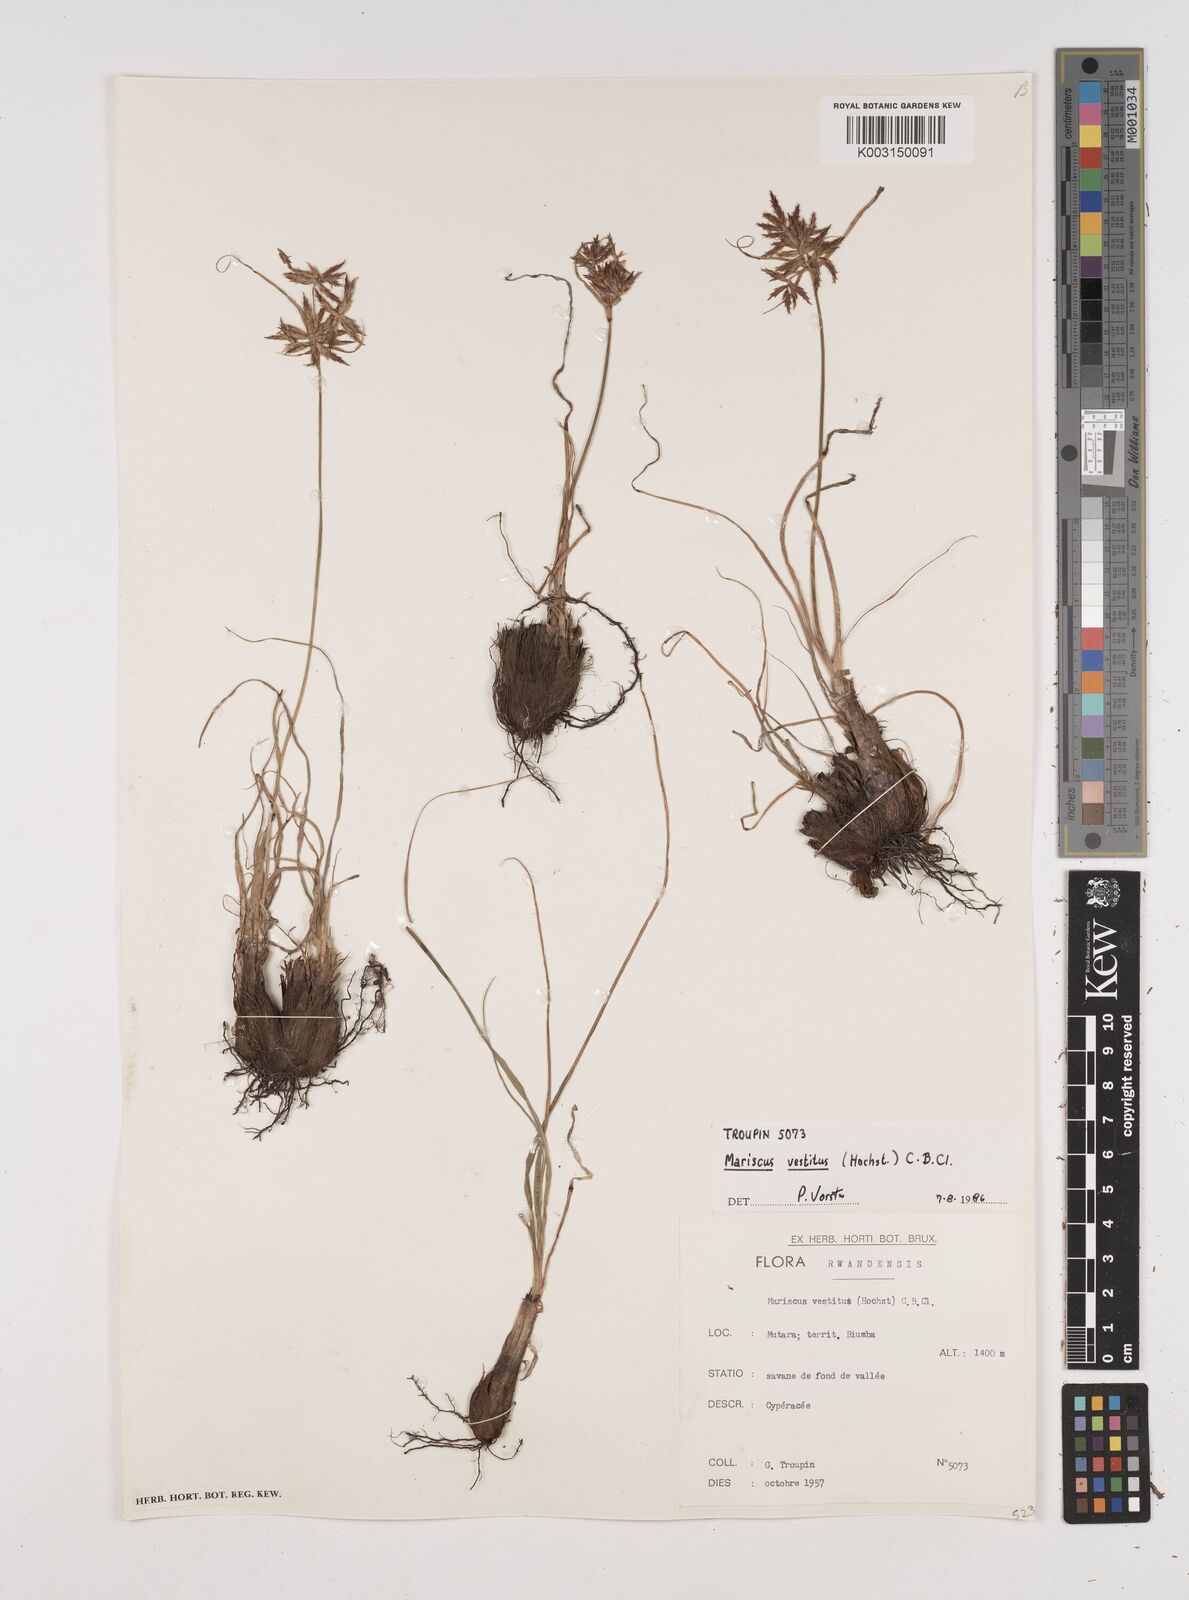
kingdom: Plantae
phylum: Tracheophyta
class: Liliopsida
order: Poales
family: Cyperaceae
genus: Cyperus
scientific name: Cyperus vestitus
